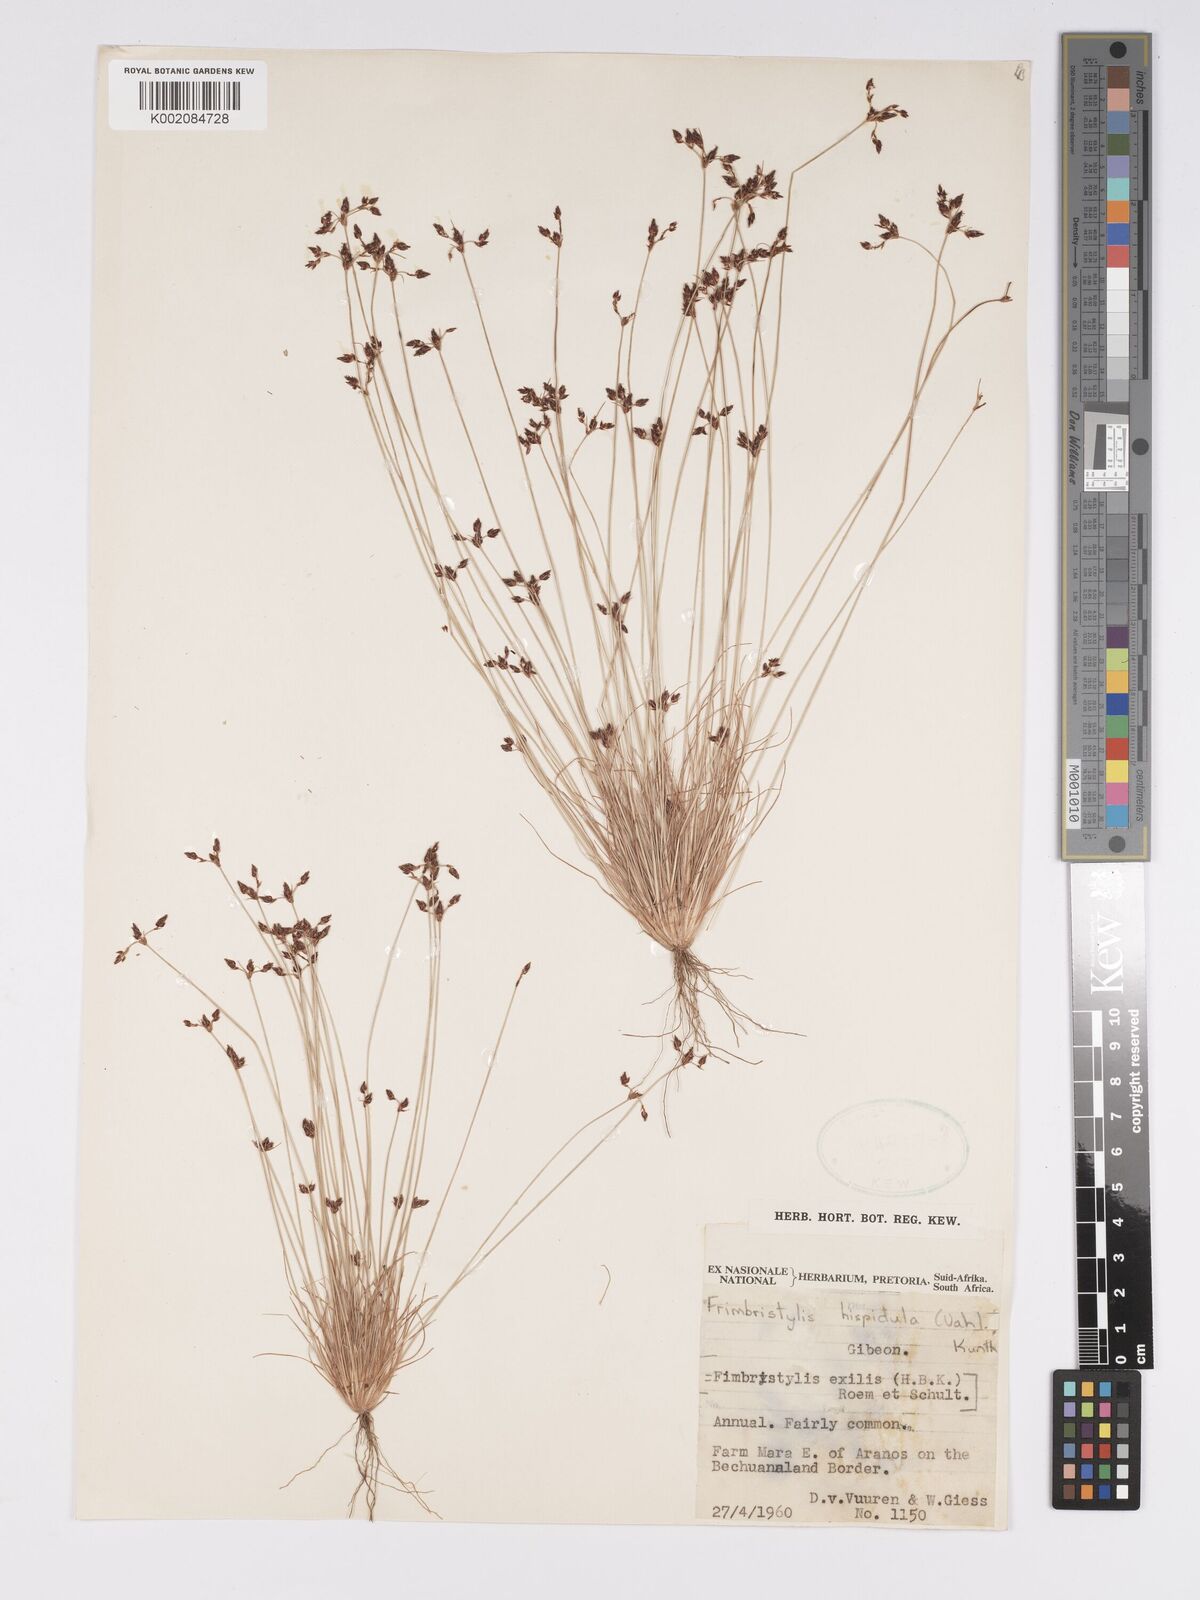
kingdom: Plantae
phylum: Tracheophyta
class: Liliopsida
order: Poales
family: Cyperaceae
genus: Bulbostylis
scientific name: Bulbostylis hispidula
